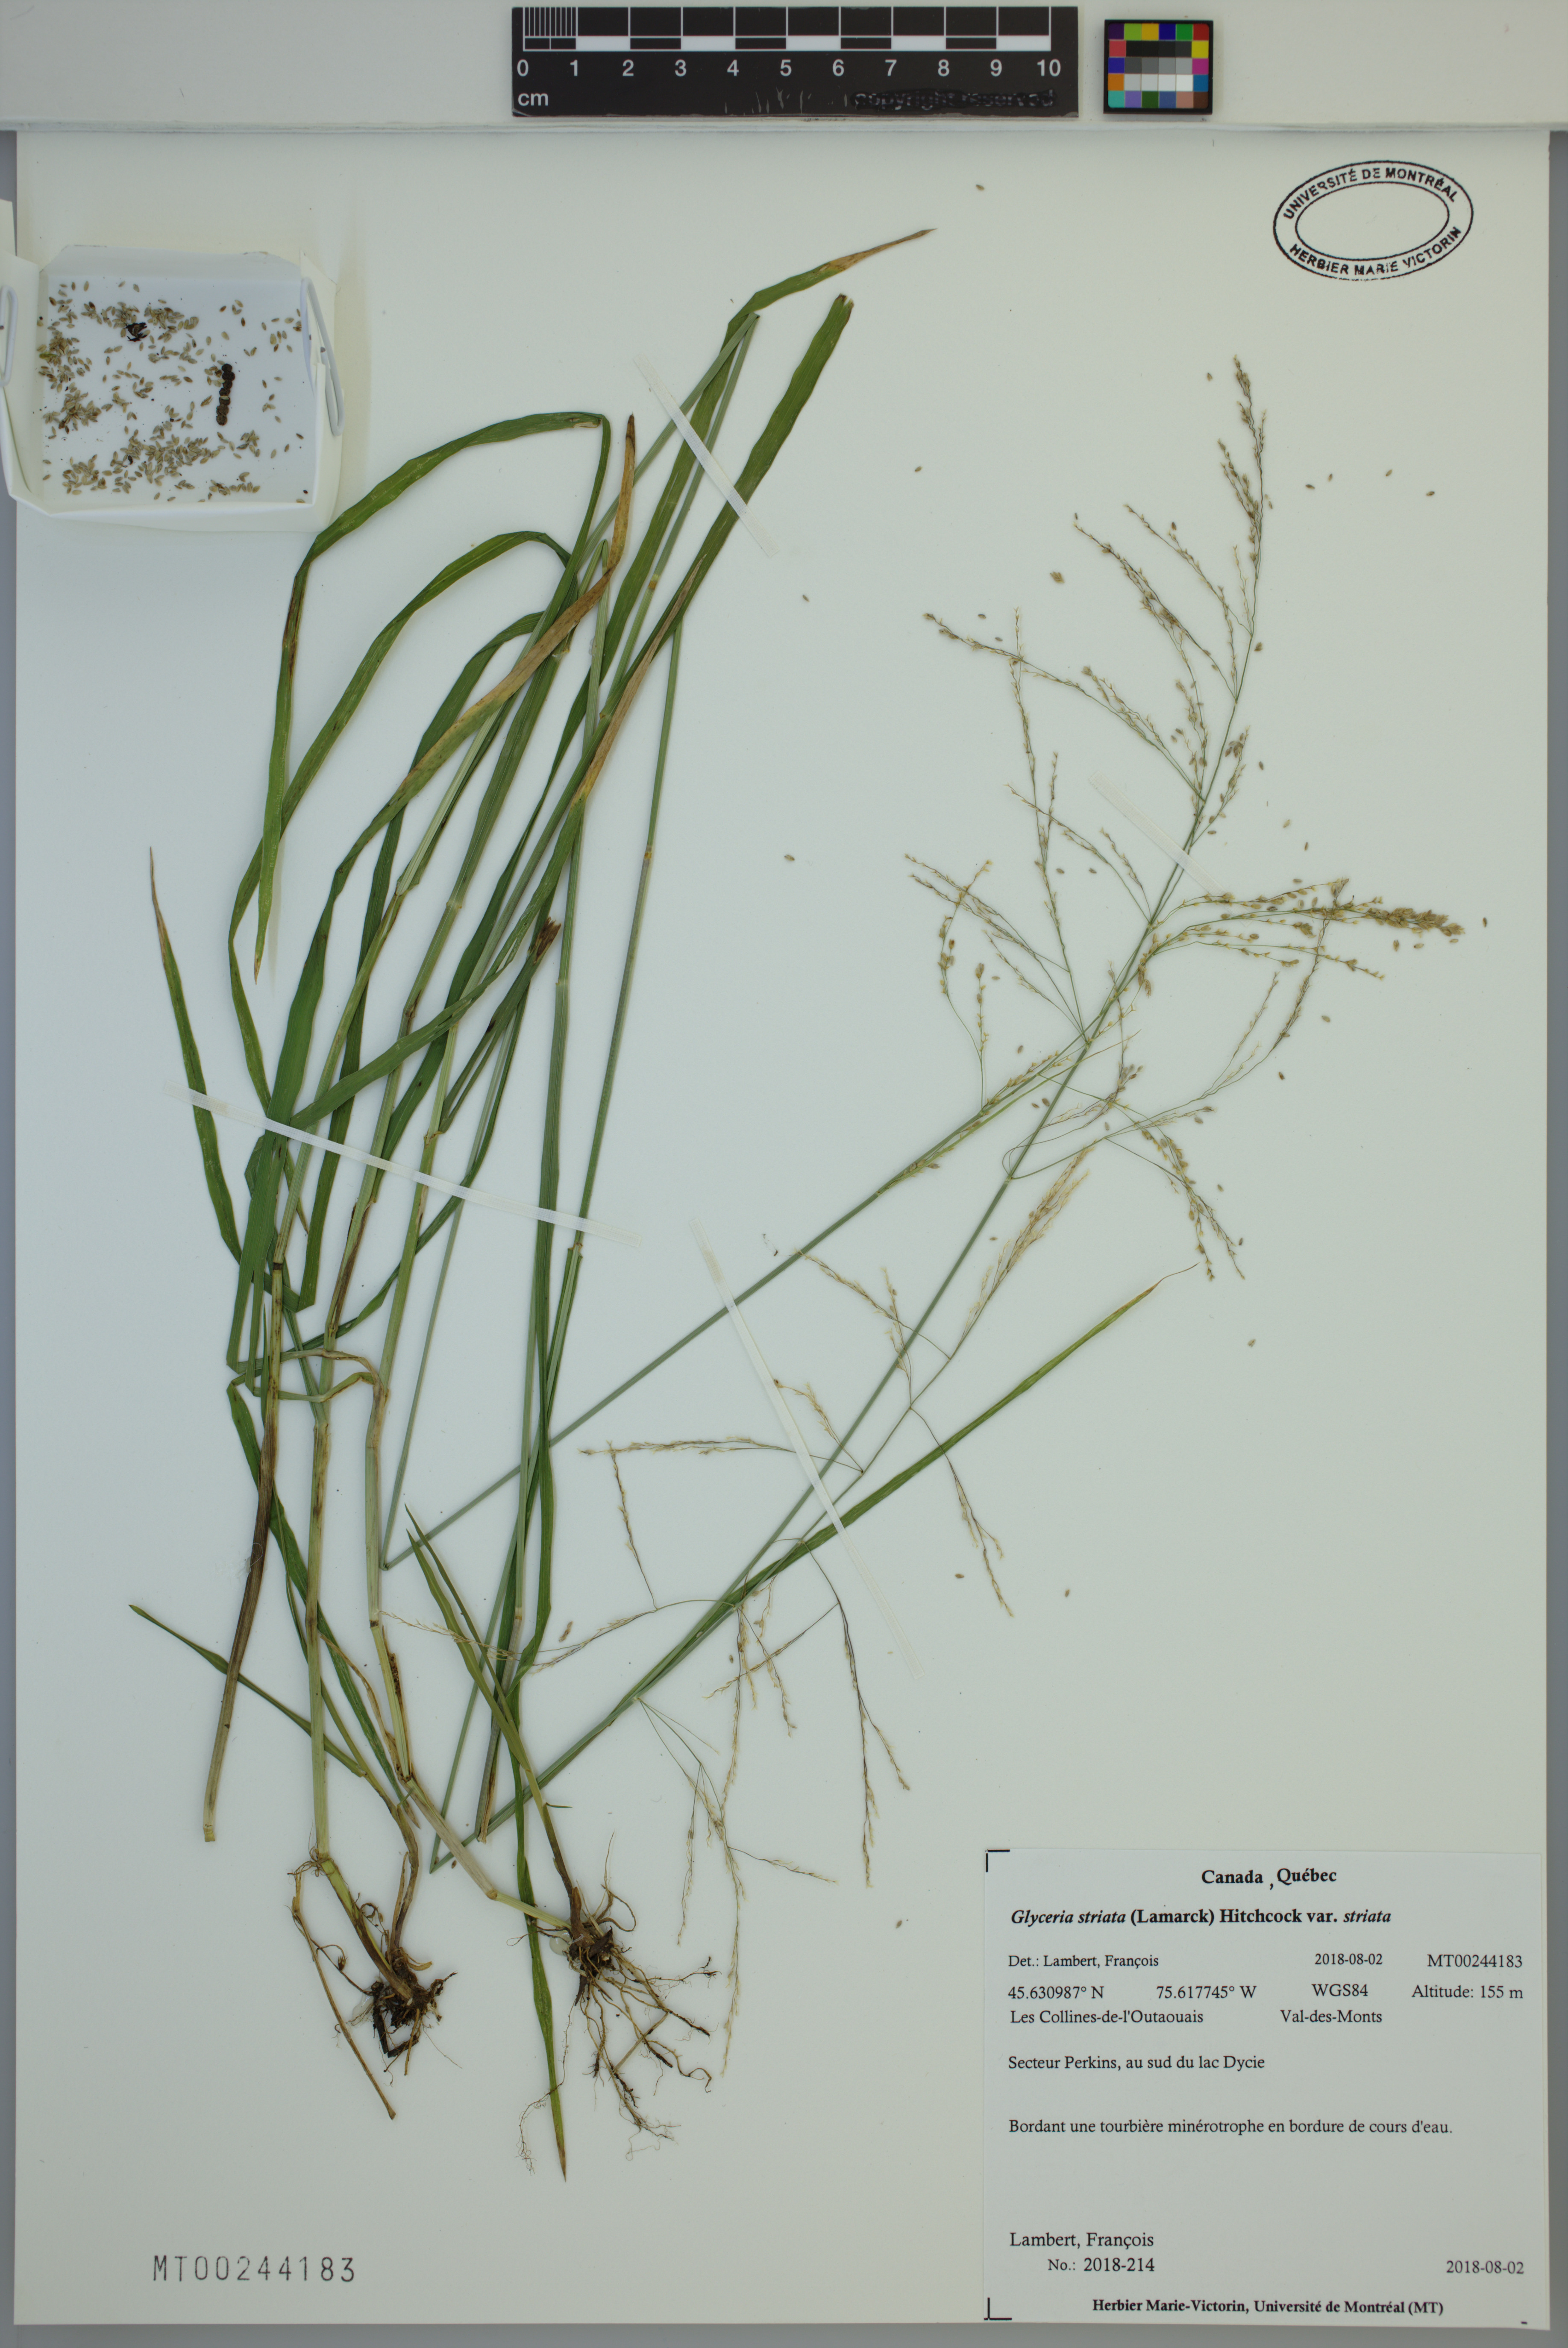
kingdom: Plantae
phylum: Tracheophyta
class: Liliopsida
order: Poales
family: Poaceae
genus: Glyceria
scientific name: Glyceria striata
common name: Fowl manna grass
